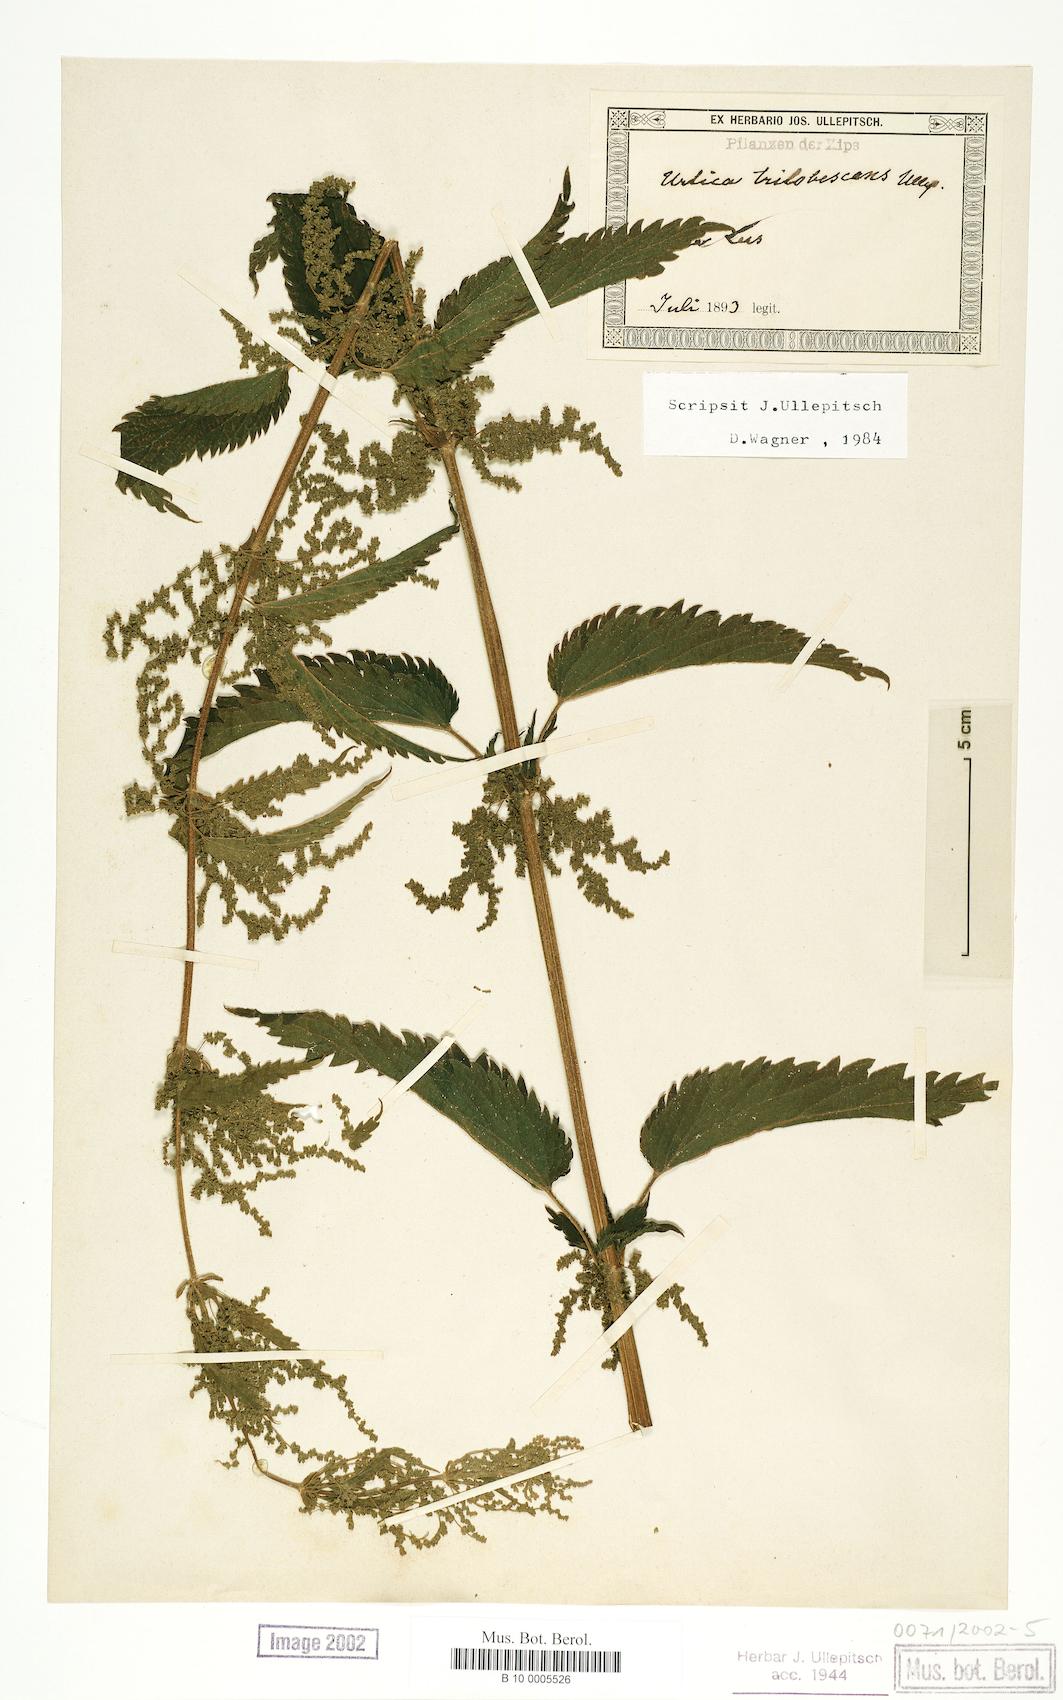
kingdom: Plantae
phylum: Tracheophyta
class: Magnoliopsida
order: Rosales
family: Urticaceae
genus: Urtica
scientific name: Urtica dioica
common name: Common nettle
